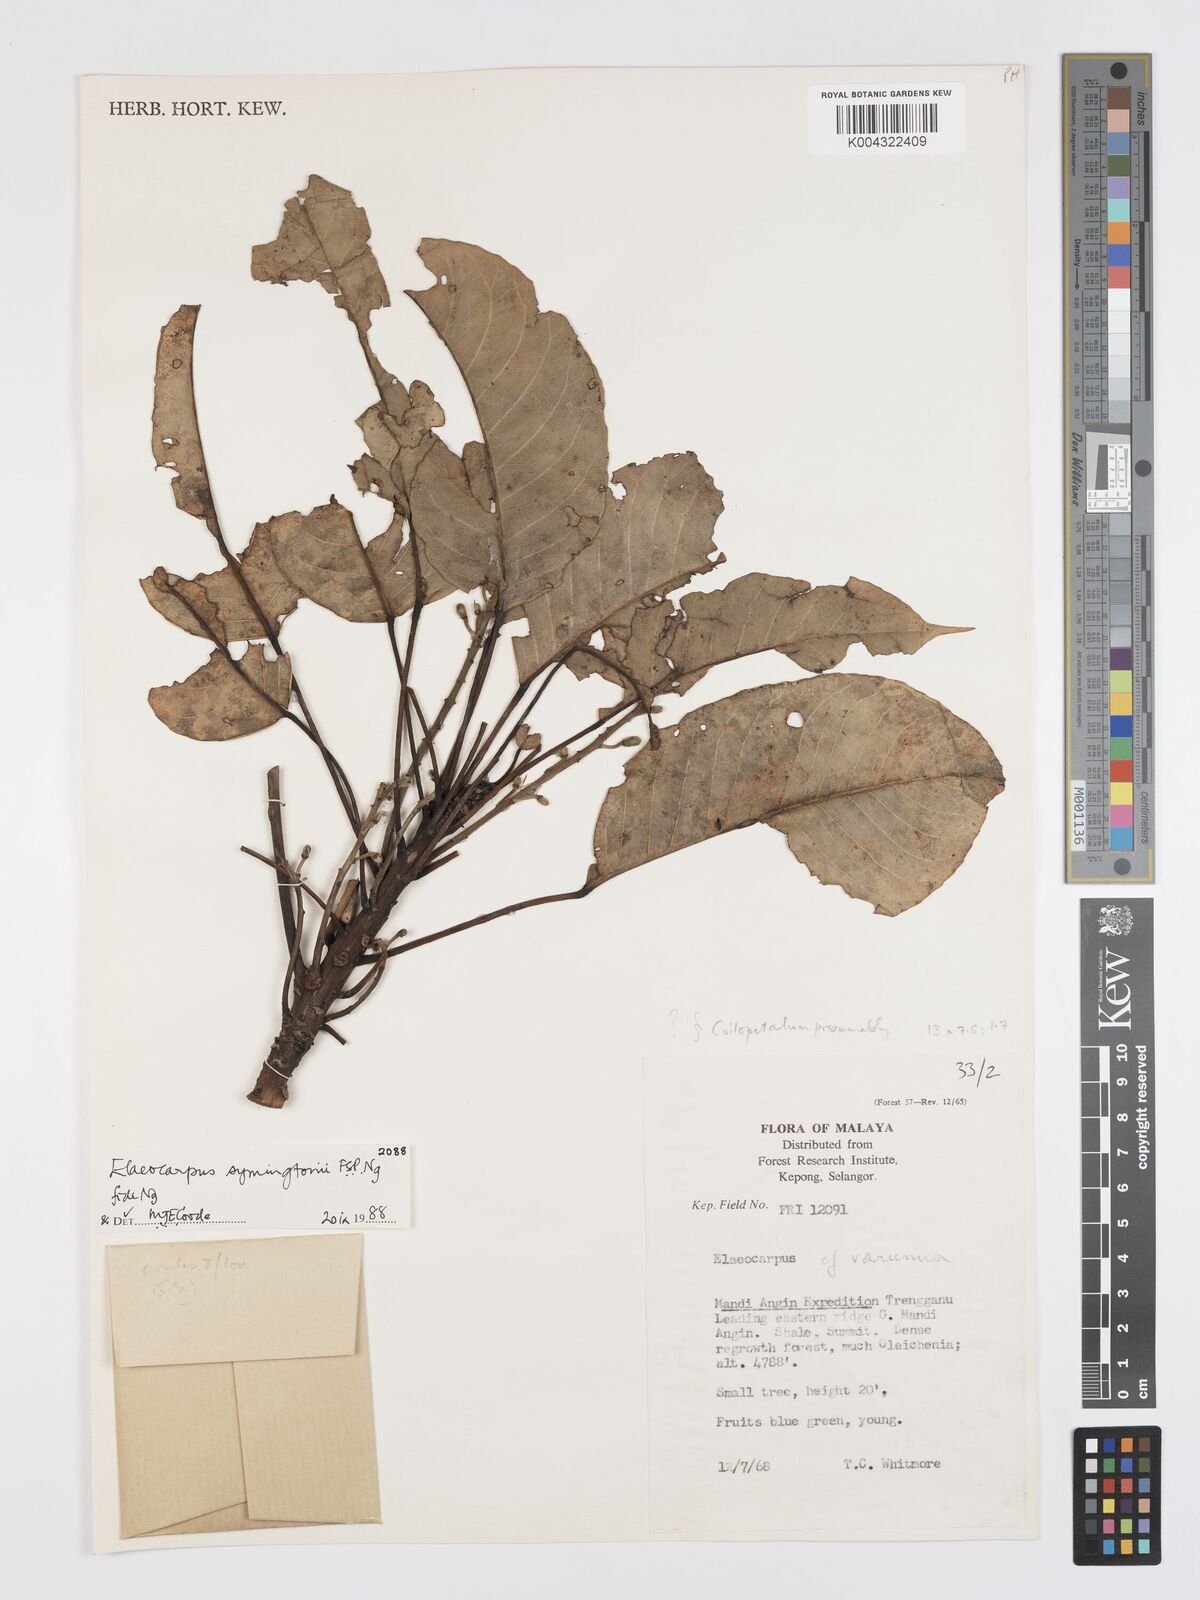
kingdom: Plantae
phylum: Tracheophyta
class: Magnoliopsida
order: Oxalidales
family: Elaeocarpaceae
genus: Elaeocarpus
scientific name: Elaeocarpus symingtonii
